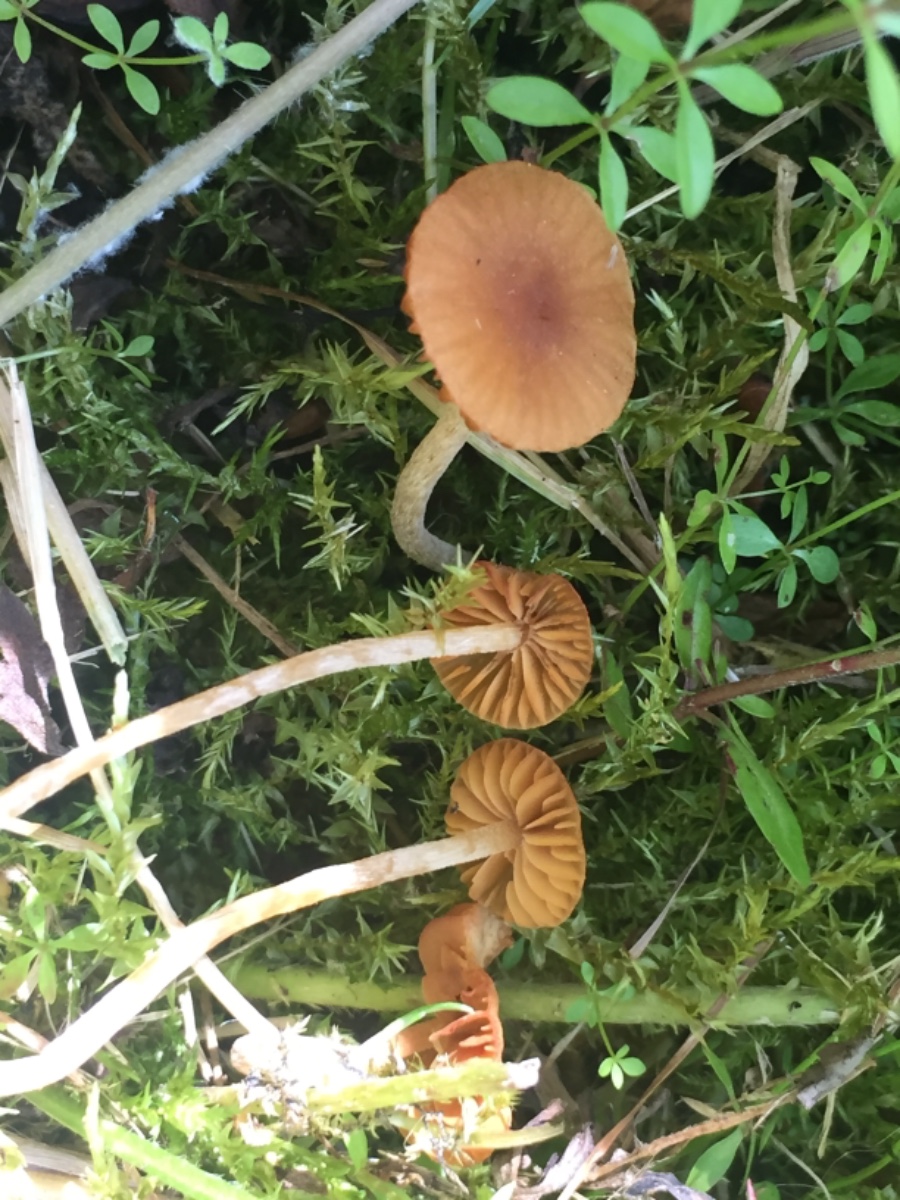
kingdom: Fungi
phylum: Basidiomycota
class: Agaricomycetes
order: Agaricales
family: Hymenogastraceae
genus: Galerina
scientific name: Galerina
